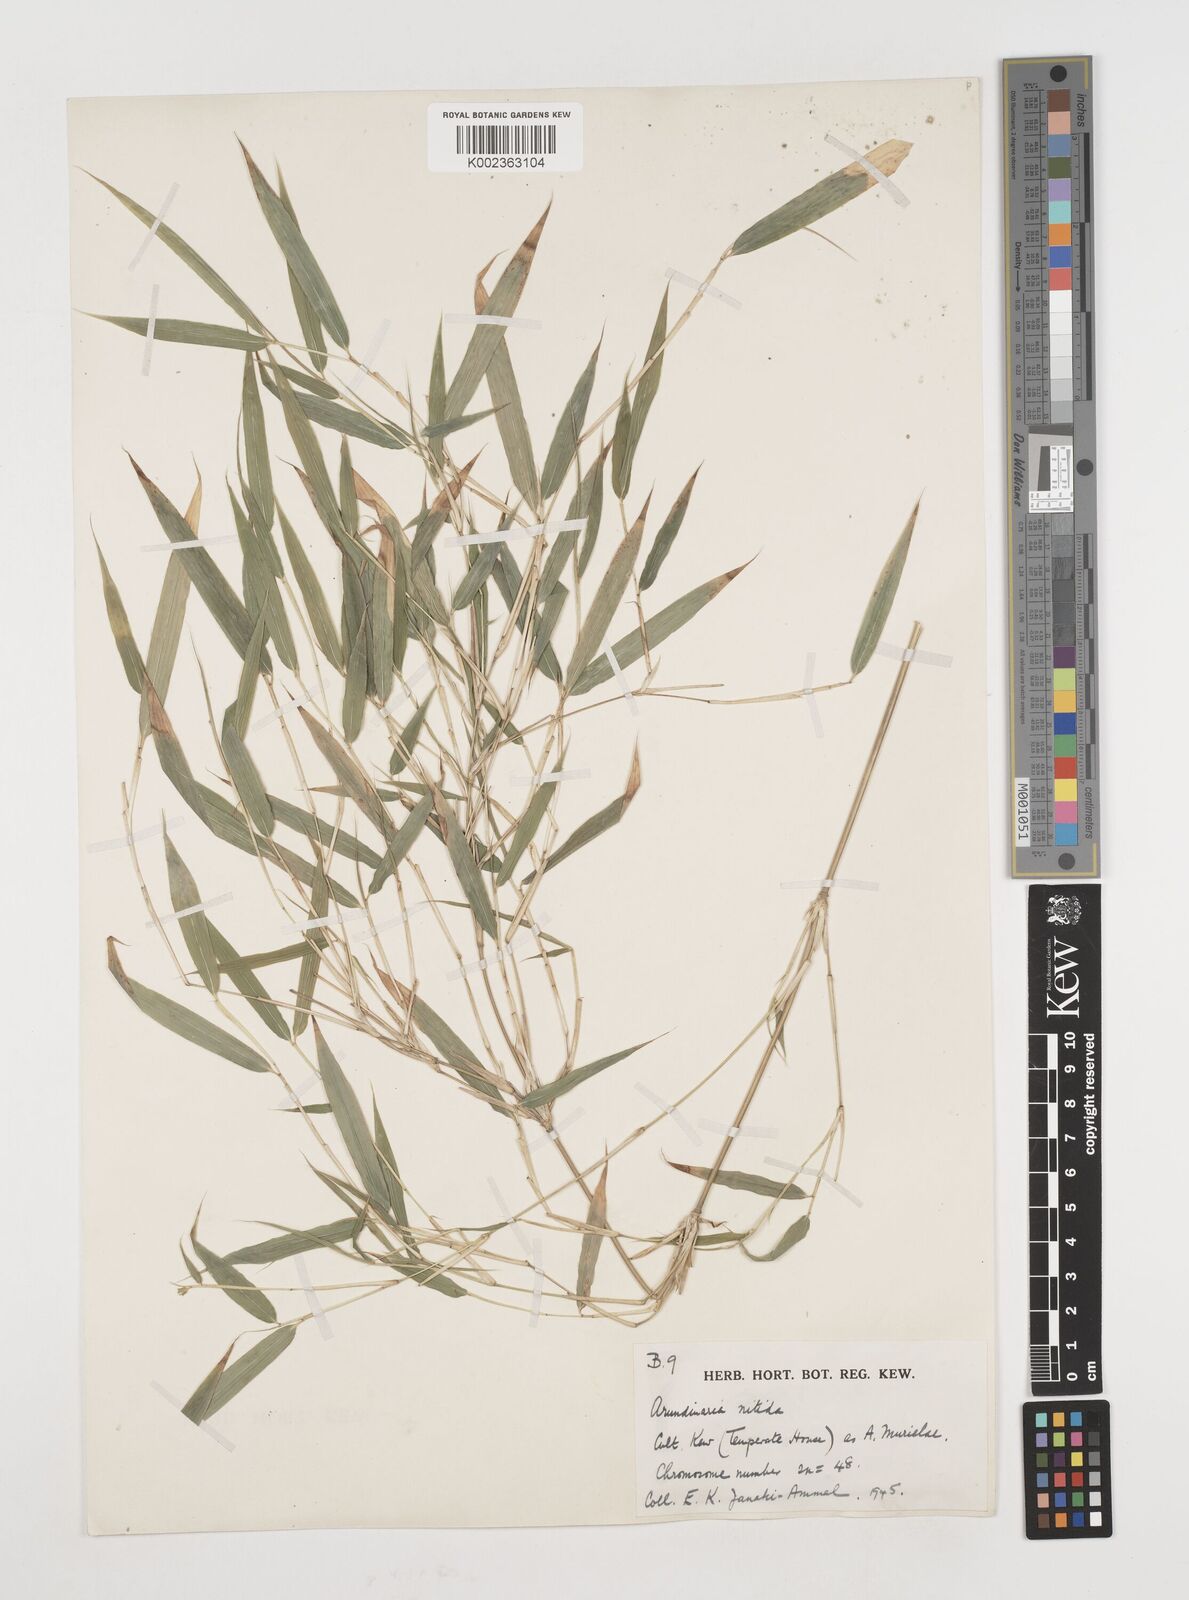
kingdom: Plantae
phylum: Tracheophyta
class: Liliopsida
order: Poales
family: Poaceae
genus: Fargesia
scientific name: Fargesia murielae
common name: Umbrella bamboo
